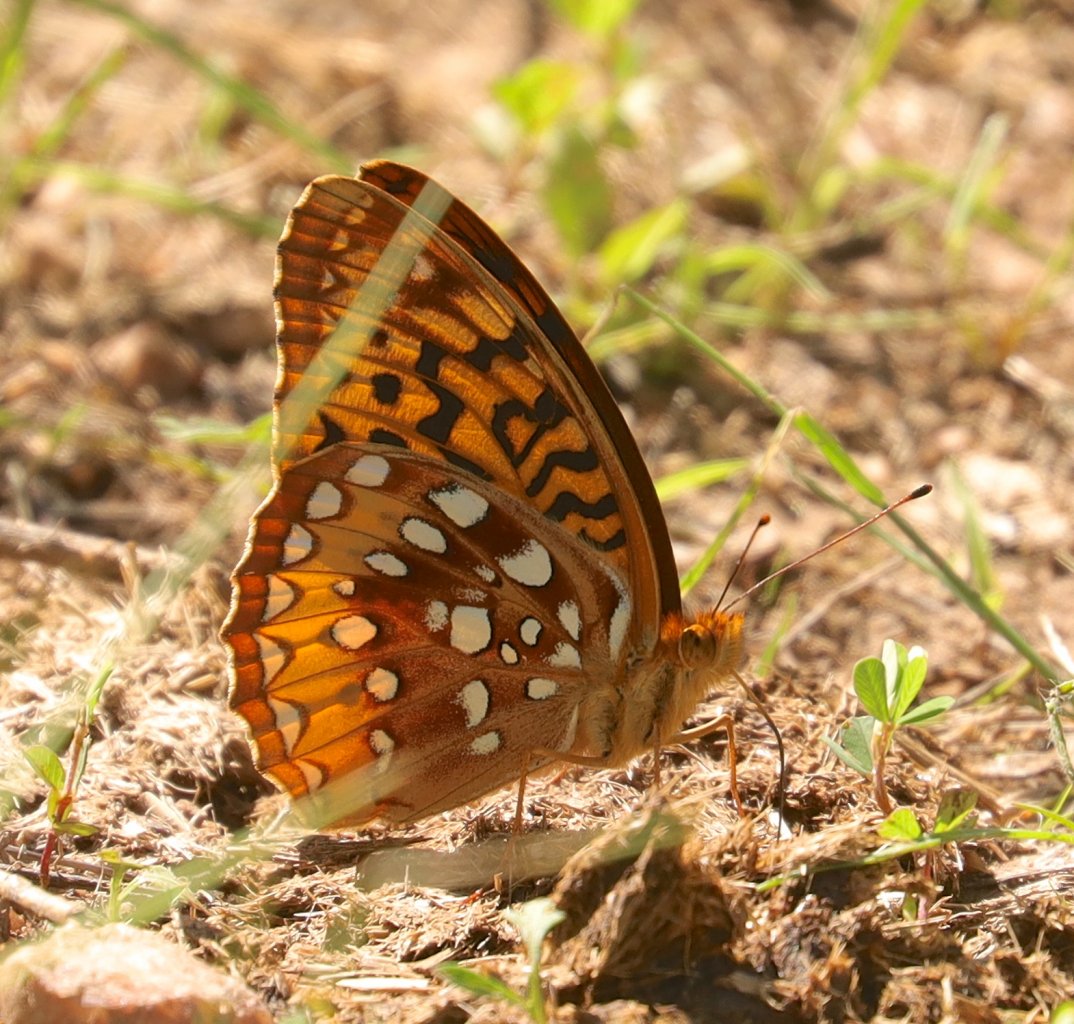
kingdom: Animalia
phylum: Arthropoda
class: Insecta
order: Lepidoptera
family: Nymphalidae
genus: Speyeria
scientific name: Speyeria cybele
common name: Great Spangled Fritillary
